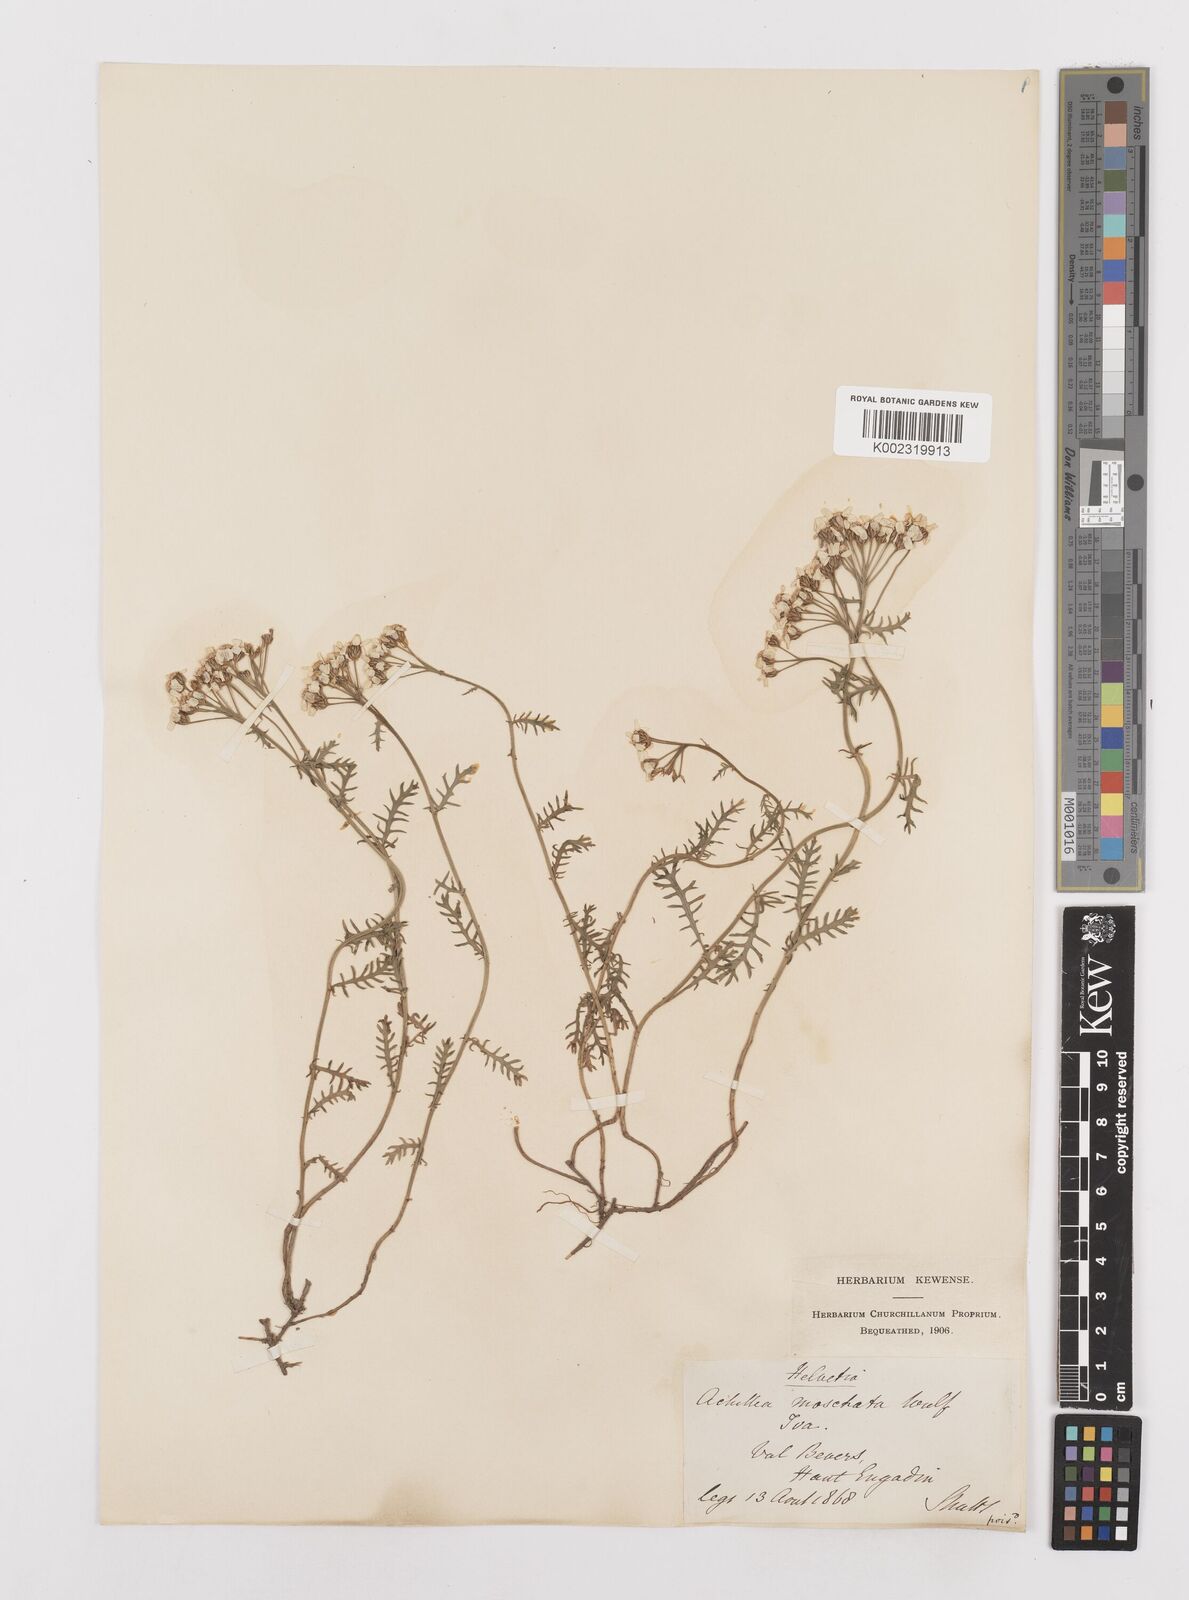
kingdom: Plantae
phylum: Tracheophyta
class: Magnoliopsida
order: Asterales
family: Asteraceae
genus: Achillea
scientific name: Achillea erba-rotta
